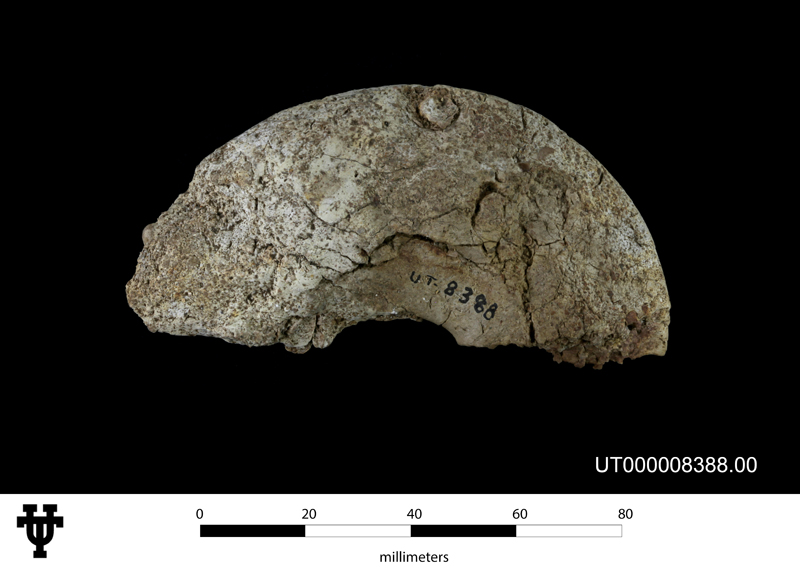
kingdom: Animalia
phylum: Mollusca
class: Cephalopoda
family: Engonoceratidae
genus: Engonoceras
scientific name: Engonoceras
